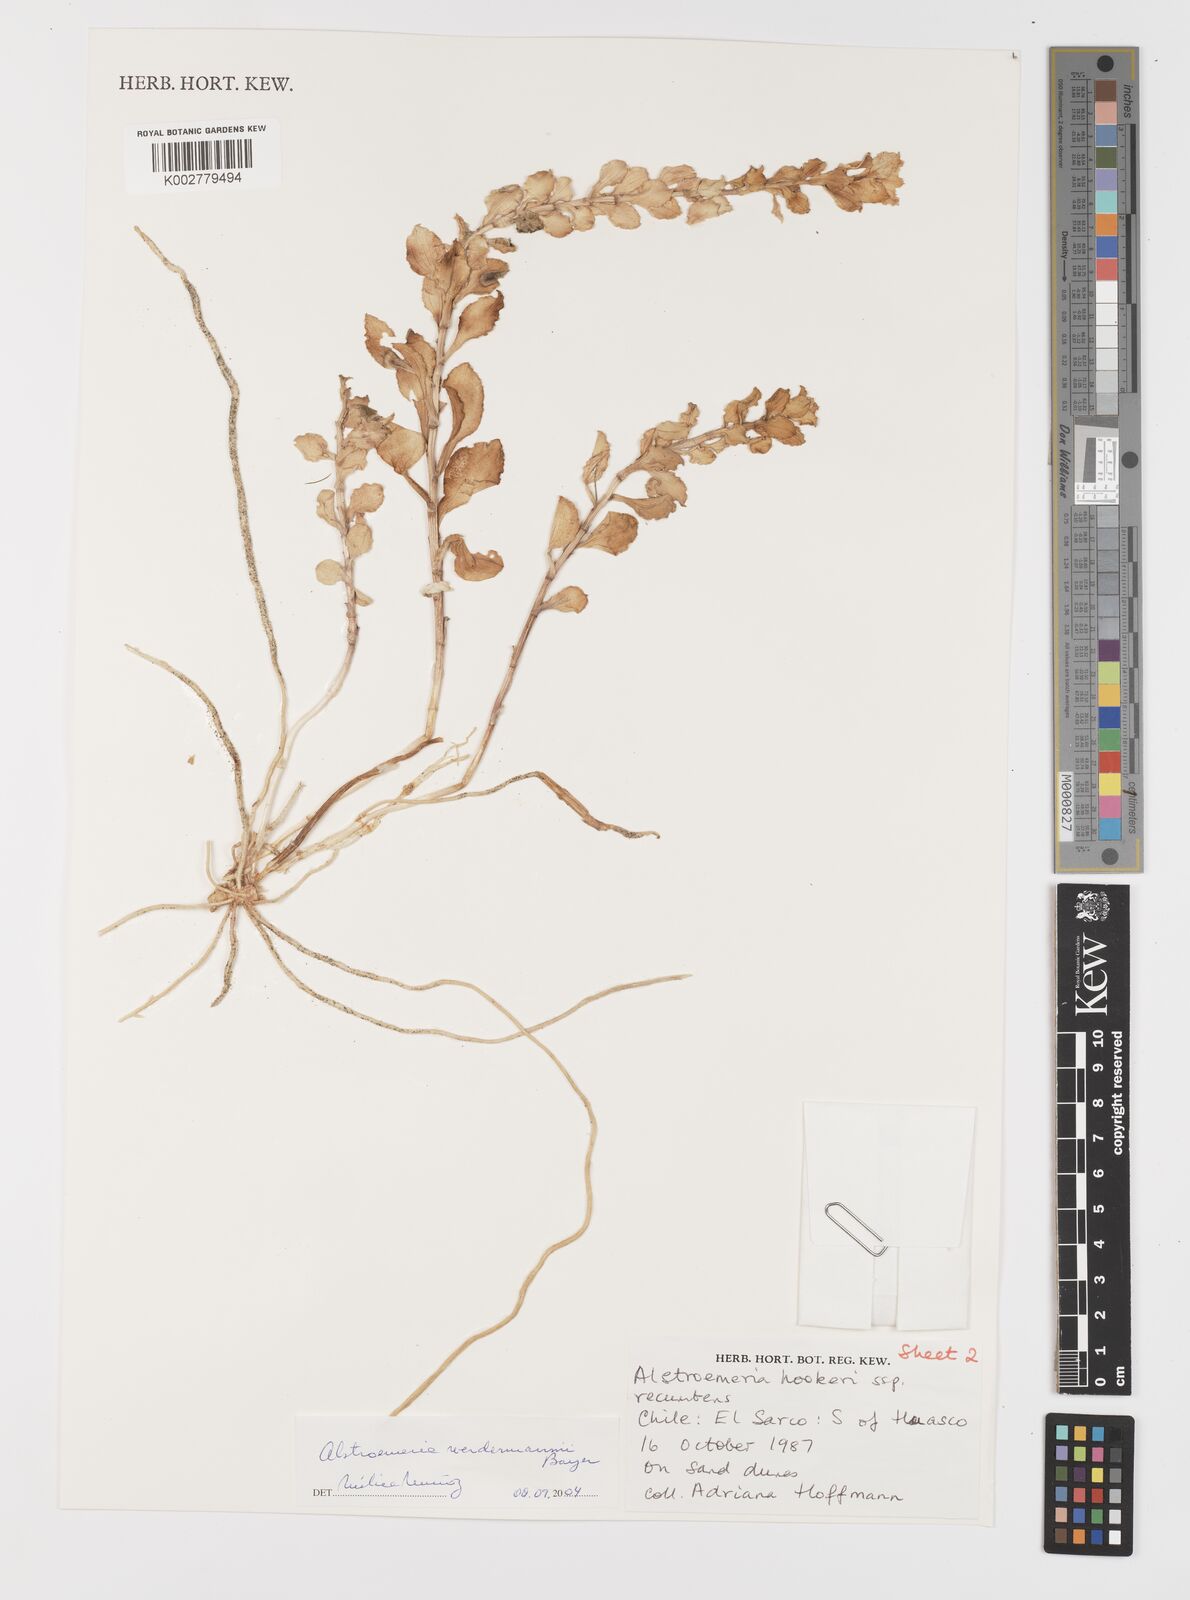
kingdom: Plantae
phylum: Tracheophyta
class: Liliopsida
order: Liliales
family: Alstroemeriaceae
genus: Alstroemeria
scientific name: Alstroemeria werdermannii
